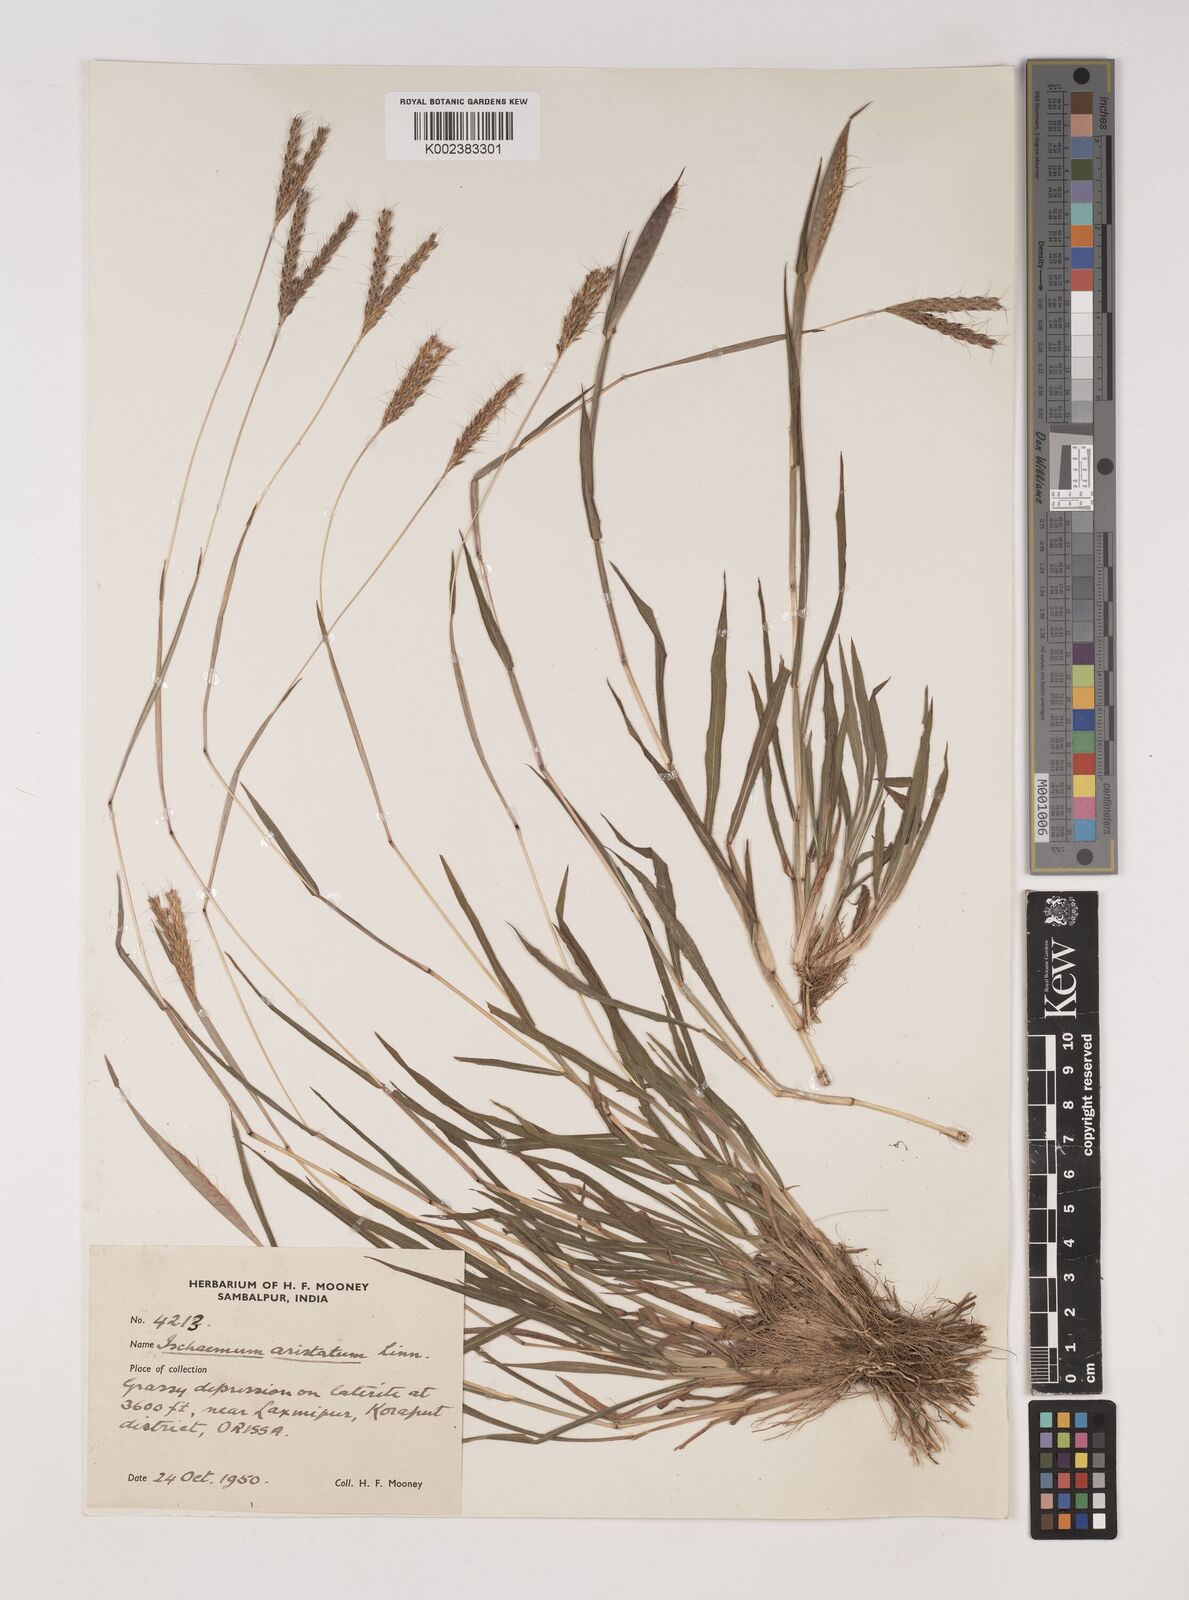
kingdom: Plantae
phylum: Tracheophyta
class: Liliopsida
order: Poales
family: Poaceae
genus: Polytrias
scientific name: Polytrias indica
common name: Indian murainagrass
